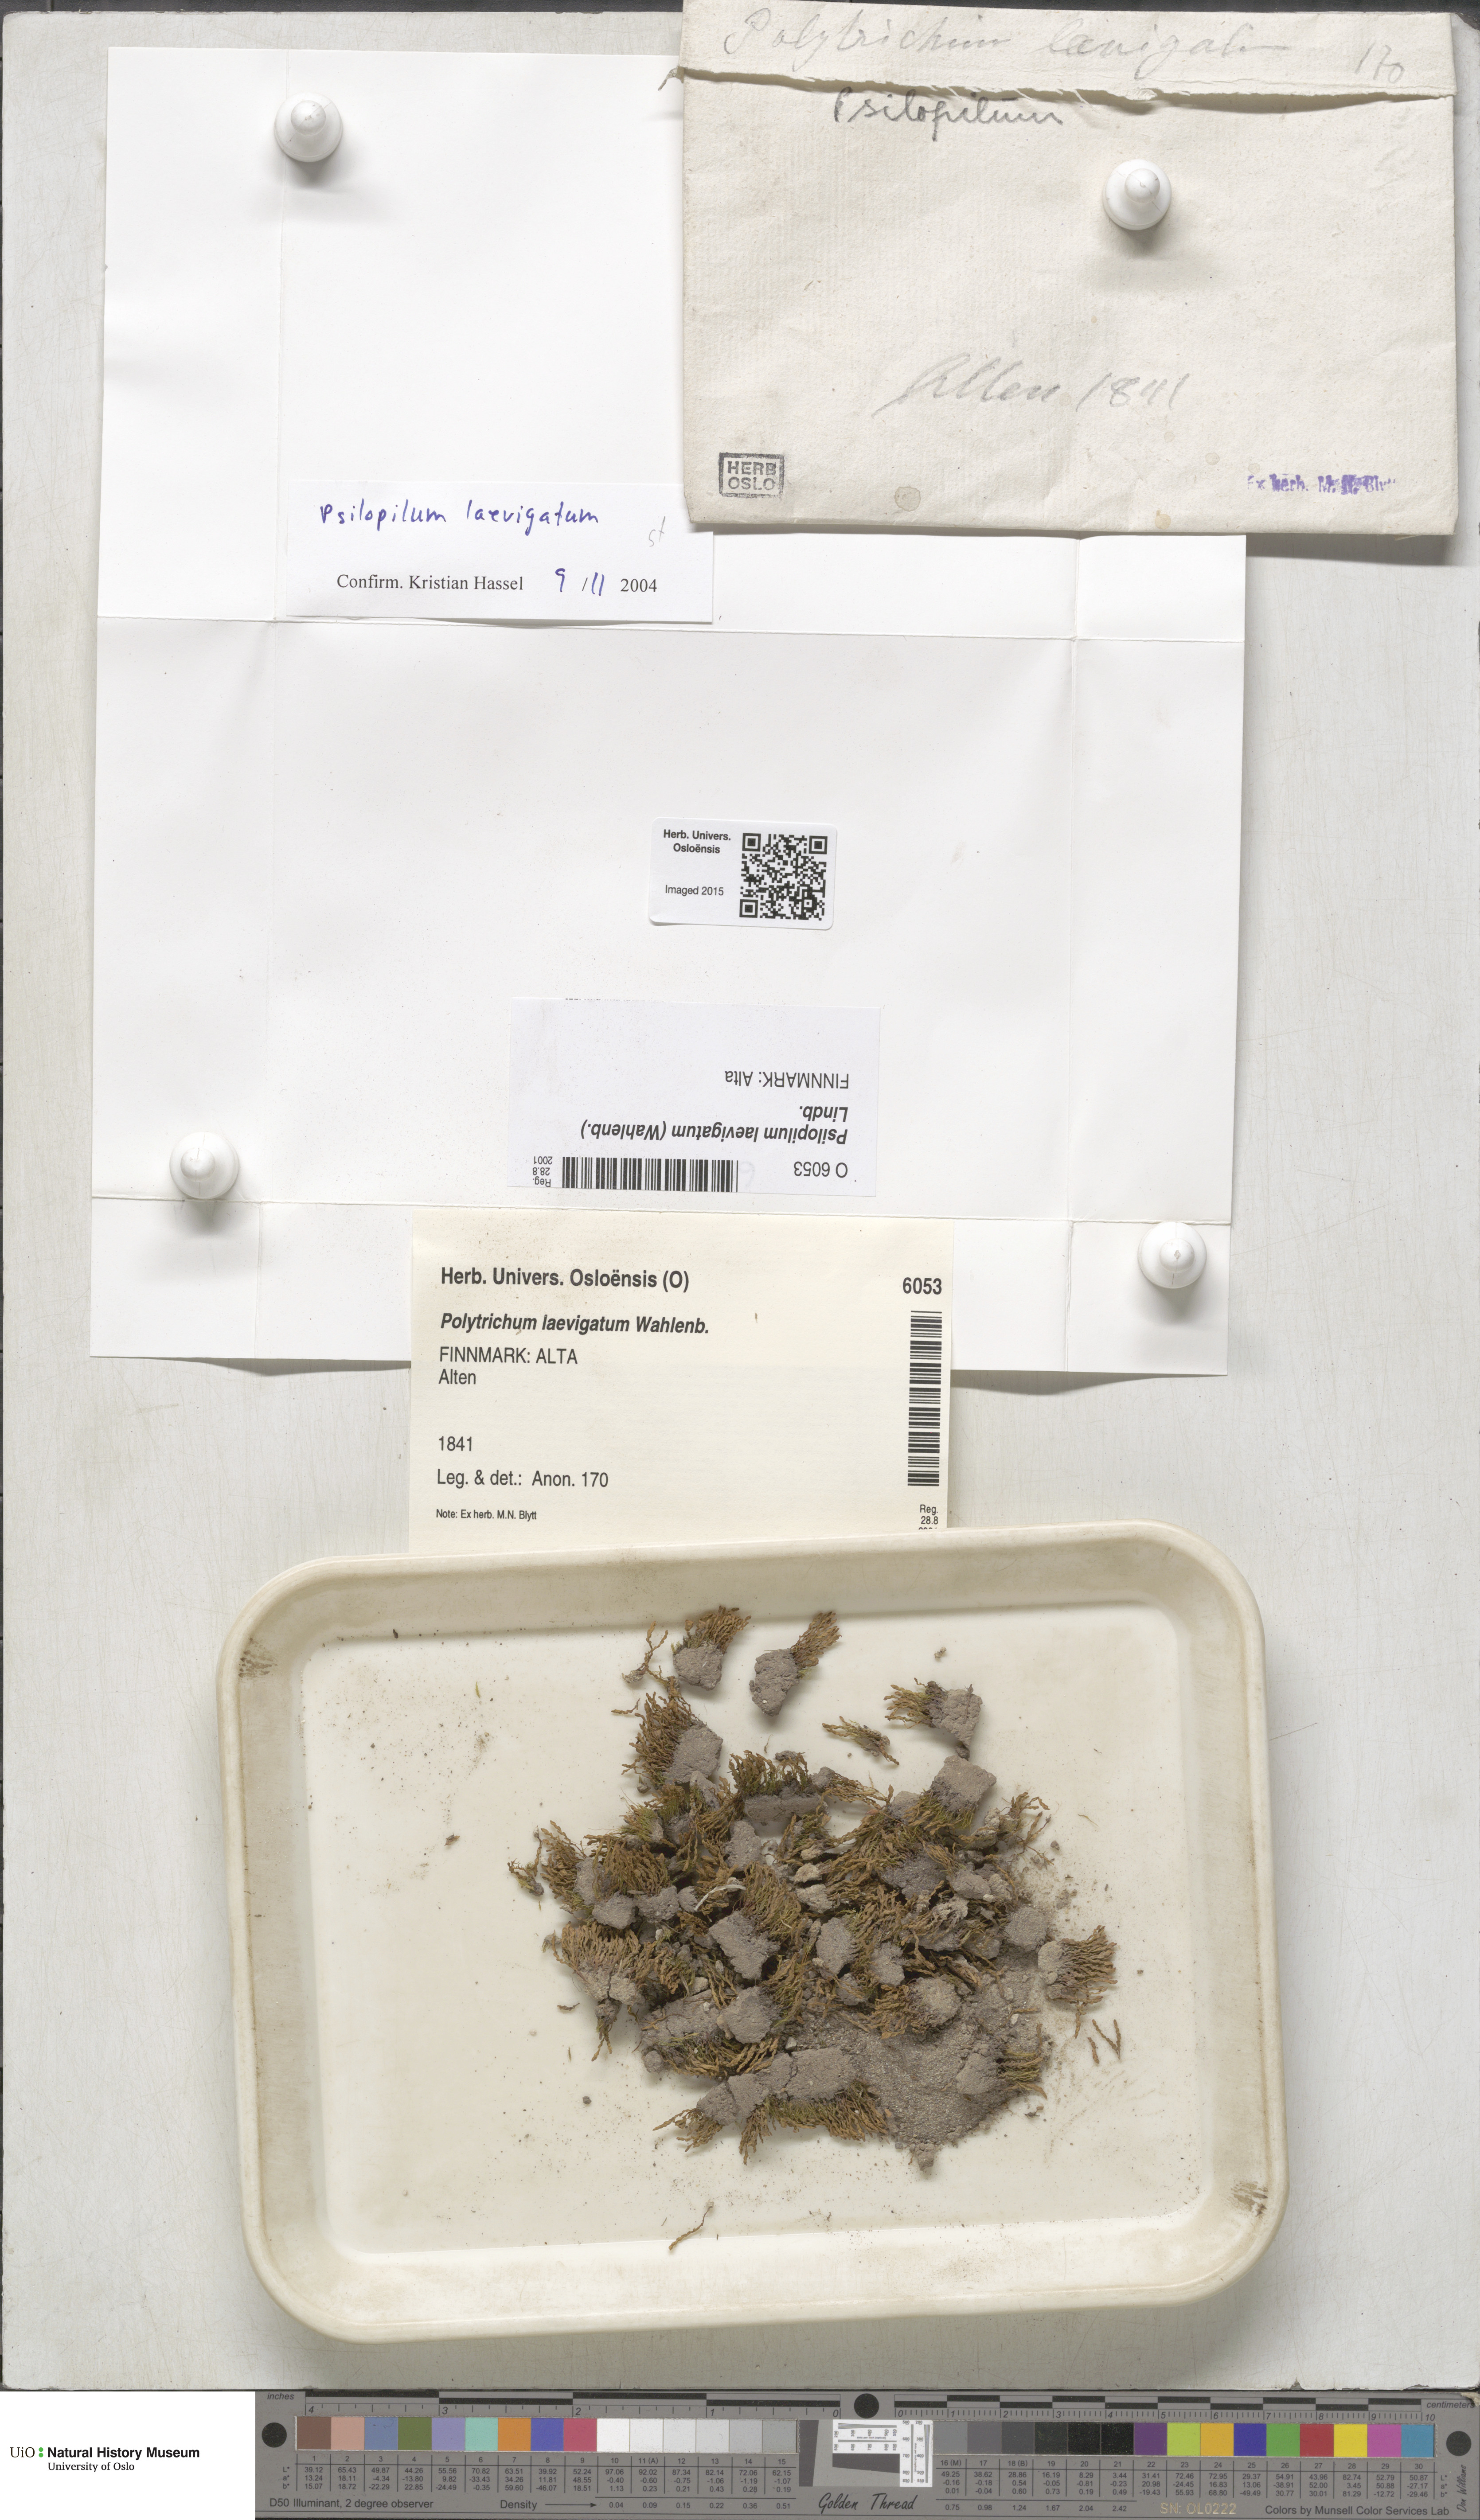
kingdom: Plantae
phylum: Bryophyta
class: Polytrichopsida
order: Polytrichales
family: Polytrichaceae
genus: Psilopilum
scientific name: Psilopilum laevigatum
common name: Large wolverine moss
